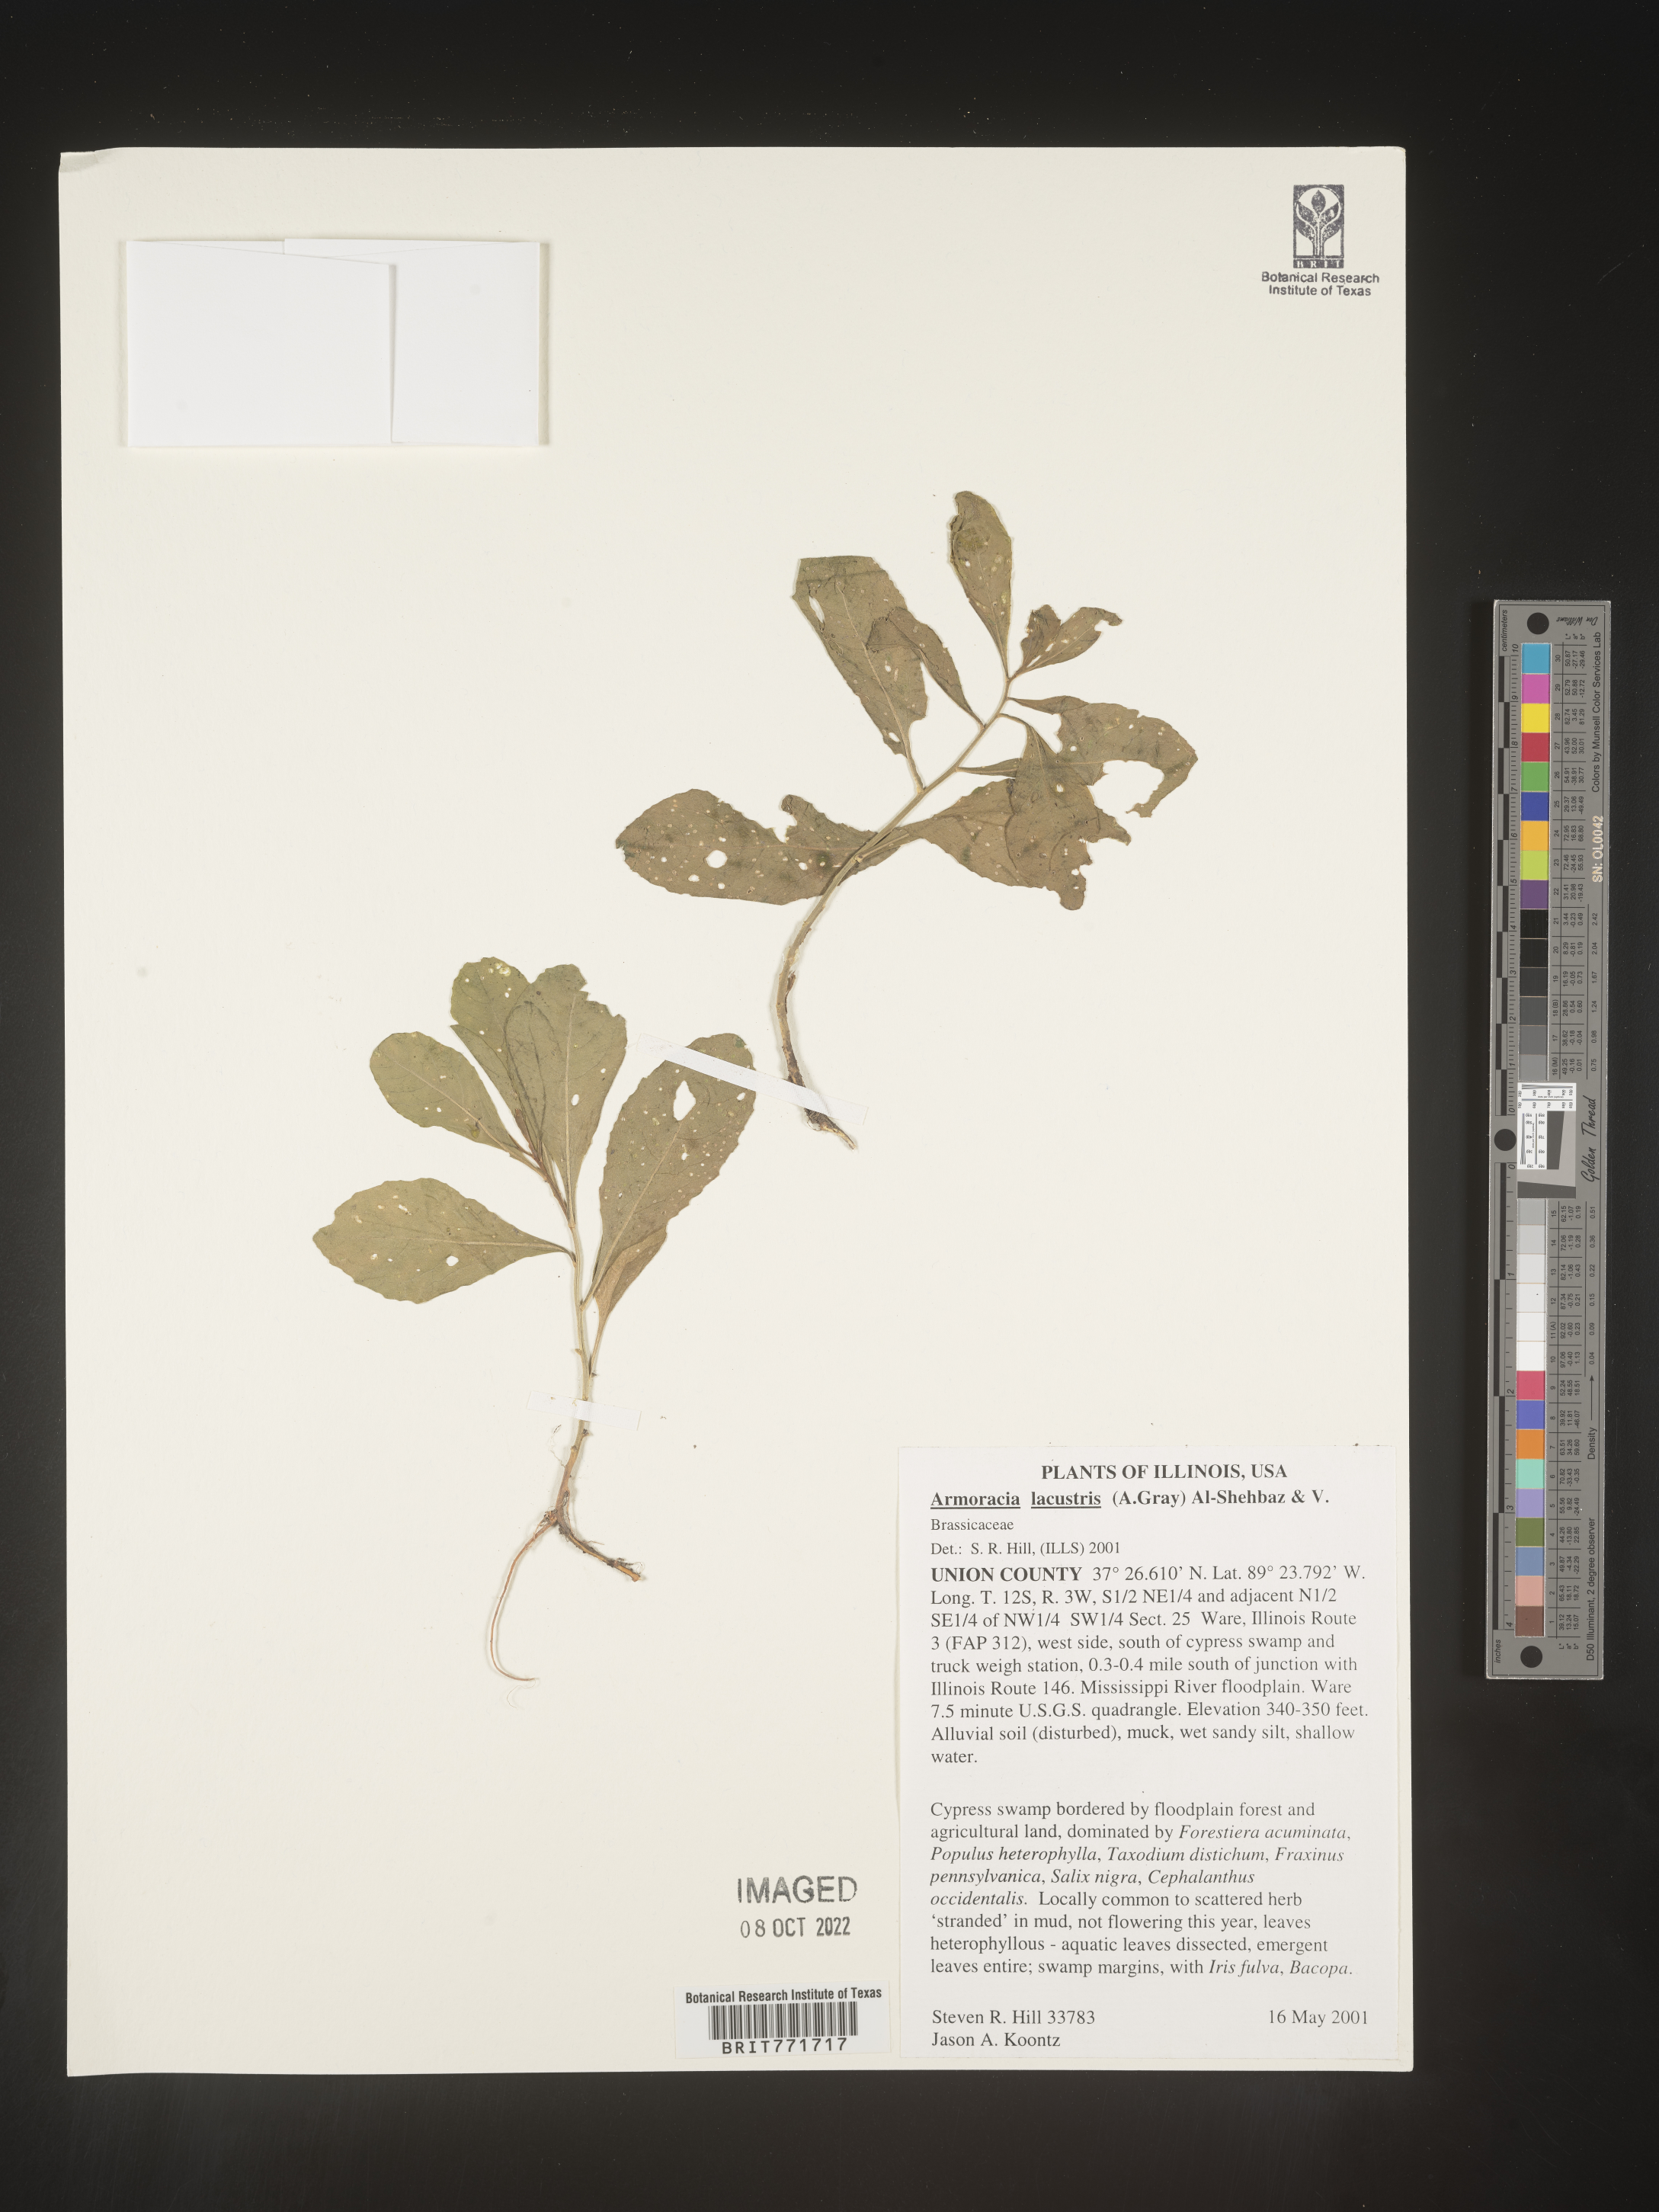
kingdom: Plantae
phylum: Tracheophyta
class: Magnoliopsida
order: Brassicales
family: Brassicaceae
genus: Armoracia
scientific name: Armoracia
